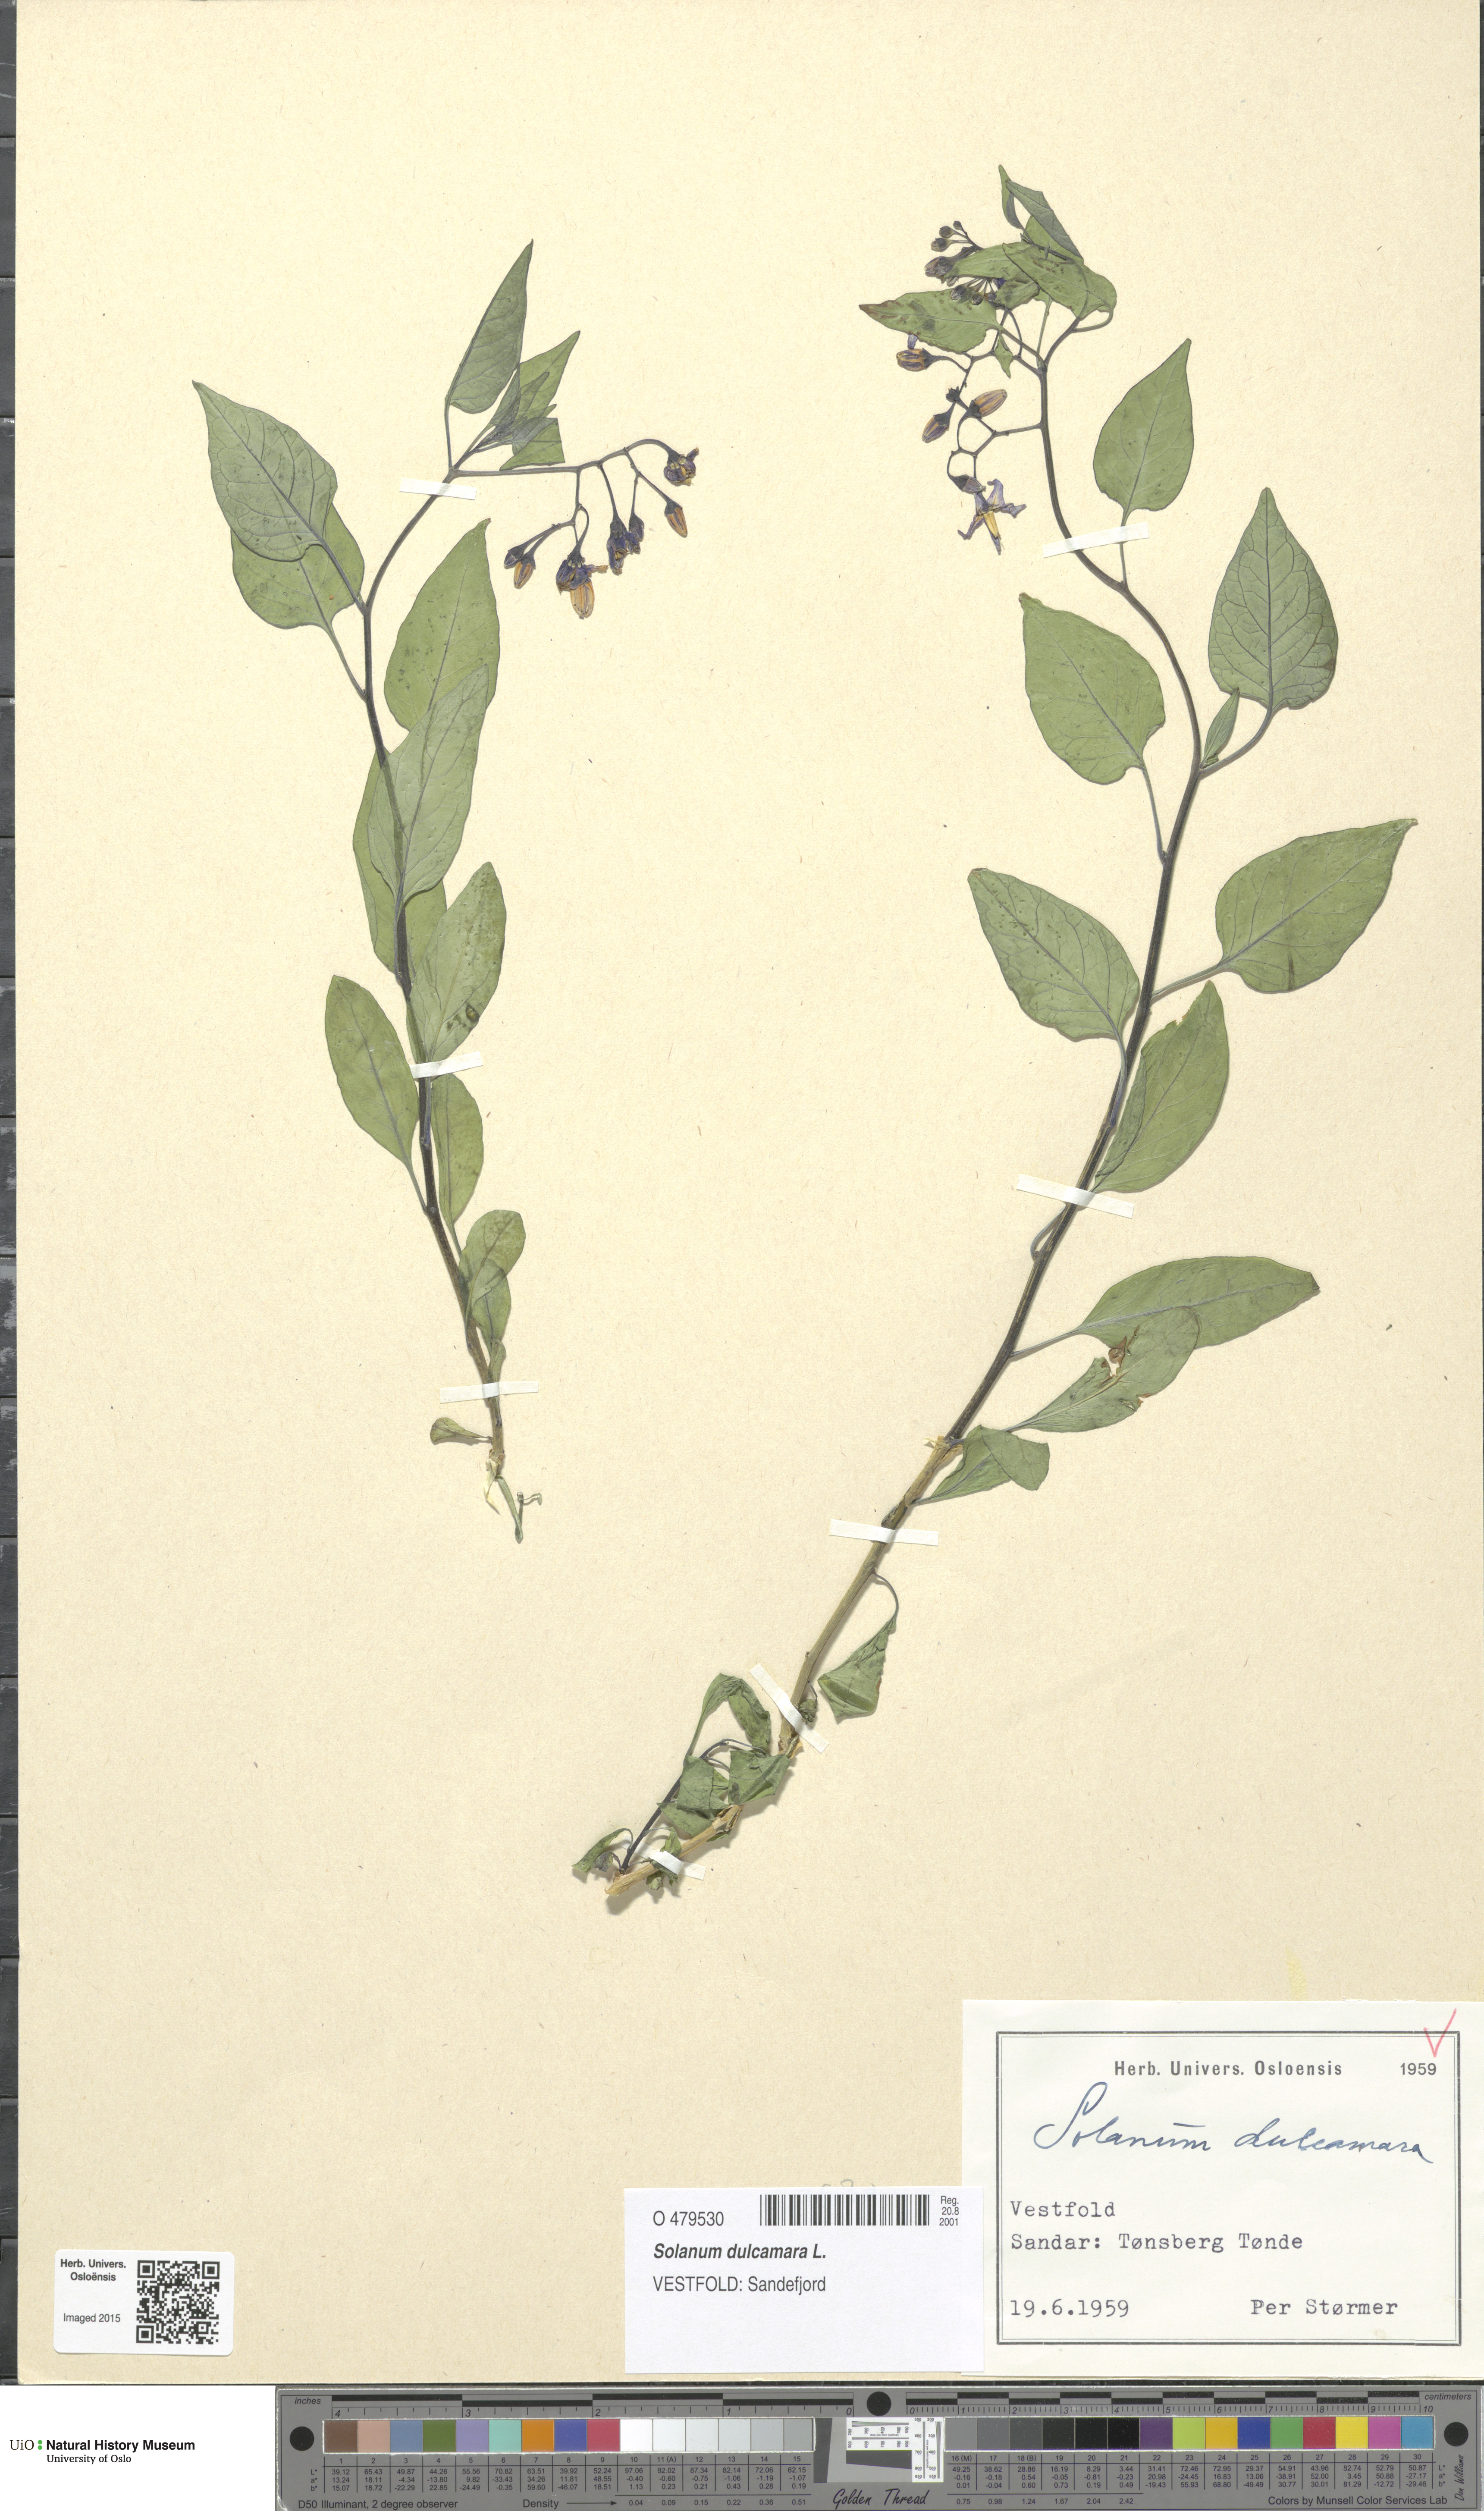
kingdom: Plantae
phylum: Tracheophyta
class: Magnoliopsida
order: Solanales
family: Solanaceae
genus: Solanum
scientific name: Solanum dulcamara
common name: Climbing nightshade
